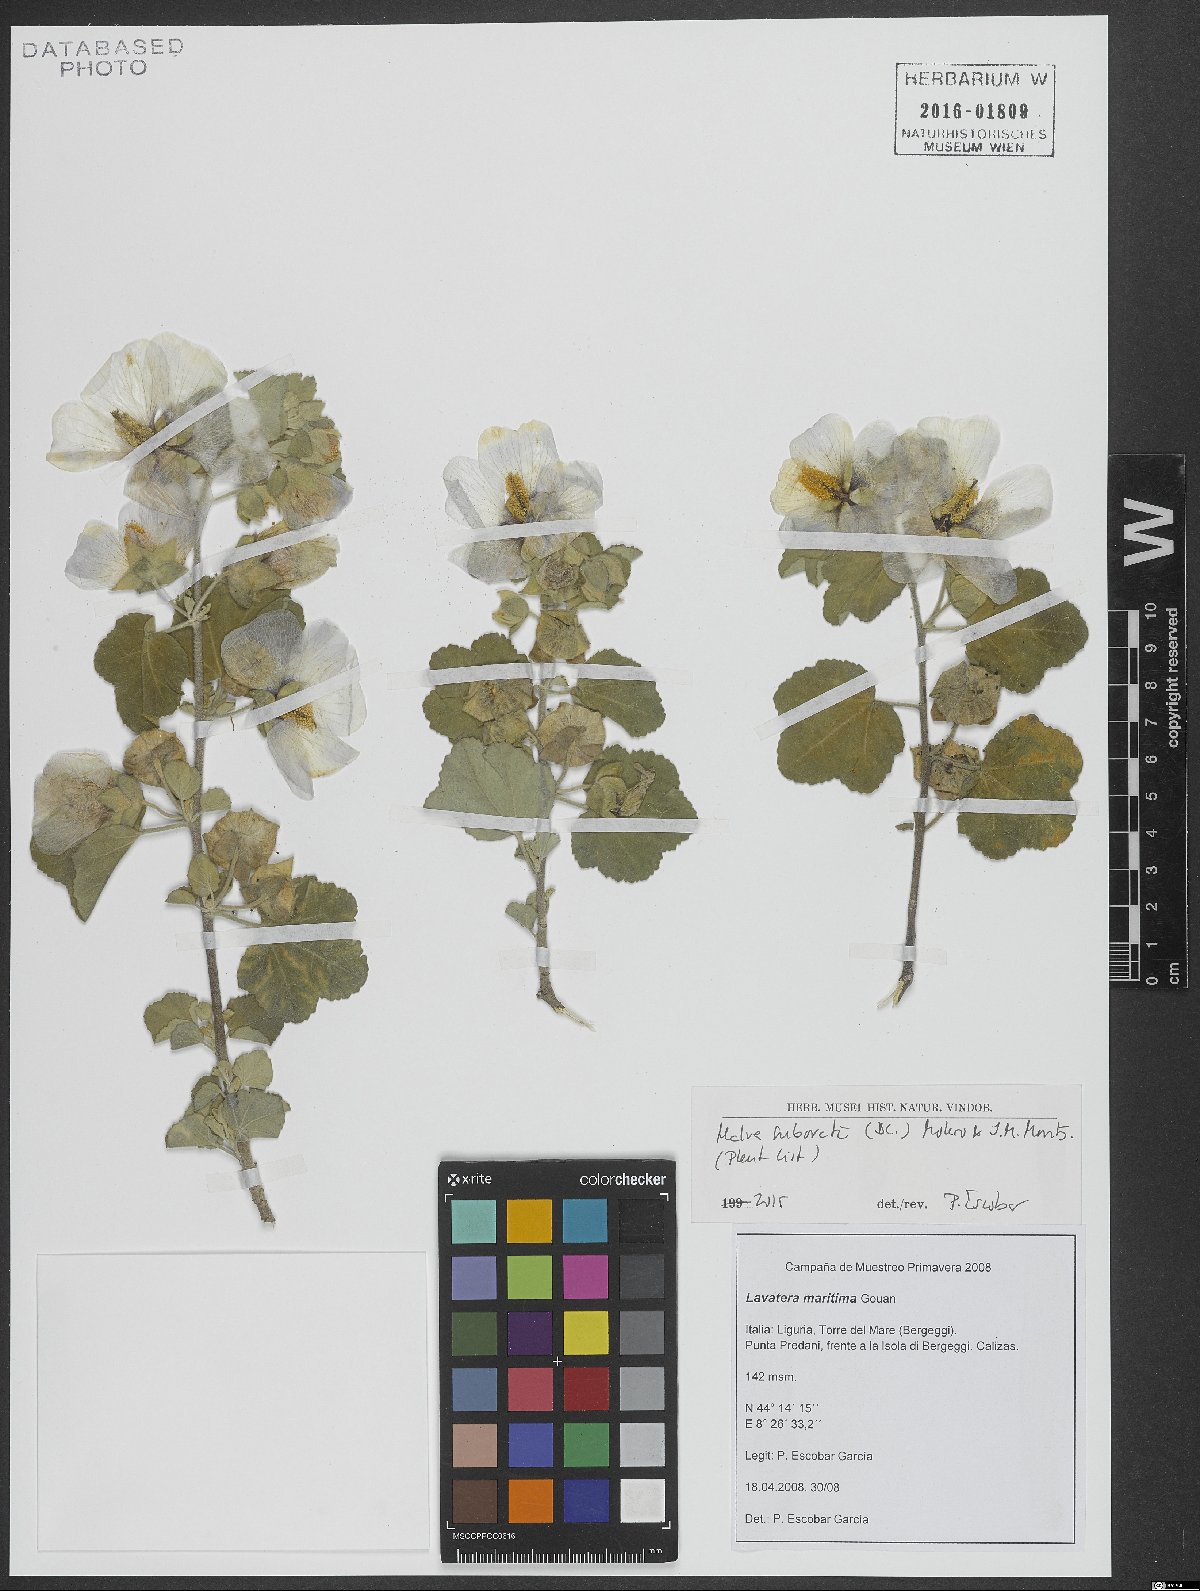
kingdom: Plantae
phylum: Tracheophyta
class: Magnoliopsida
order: Malvales
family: Malvaceae
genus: Malva
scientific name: Malva subovata
